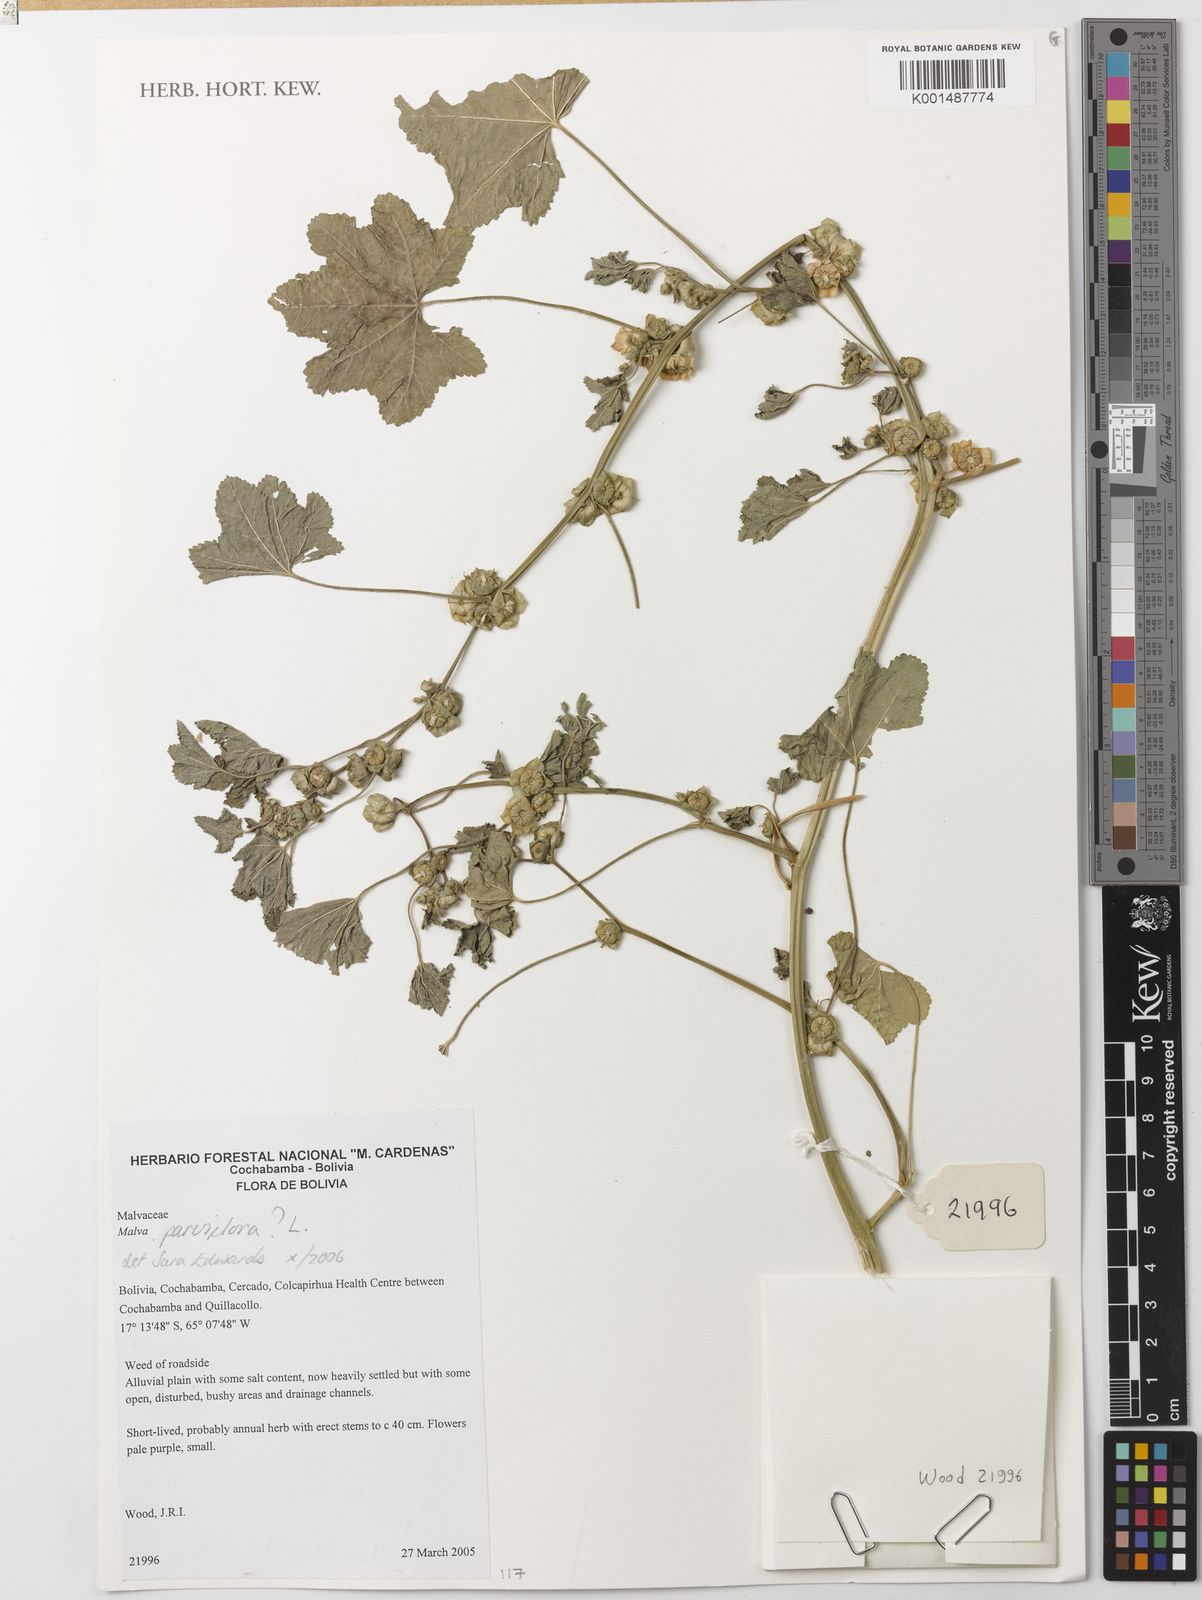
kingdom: Plantae
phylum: Tracheophyta
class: Magnoliopsida
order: Malvales
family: Malvaceae
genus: Malva
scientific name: Malva parviflora
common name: Least mallow
